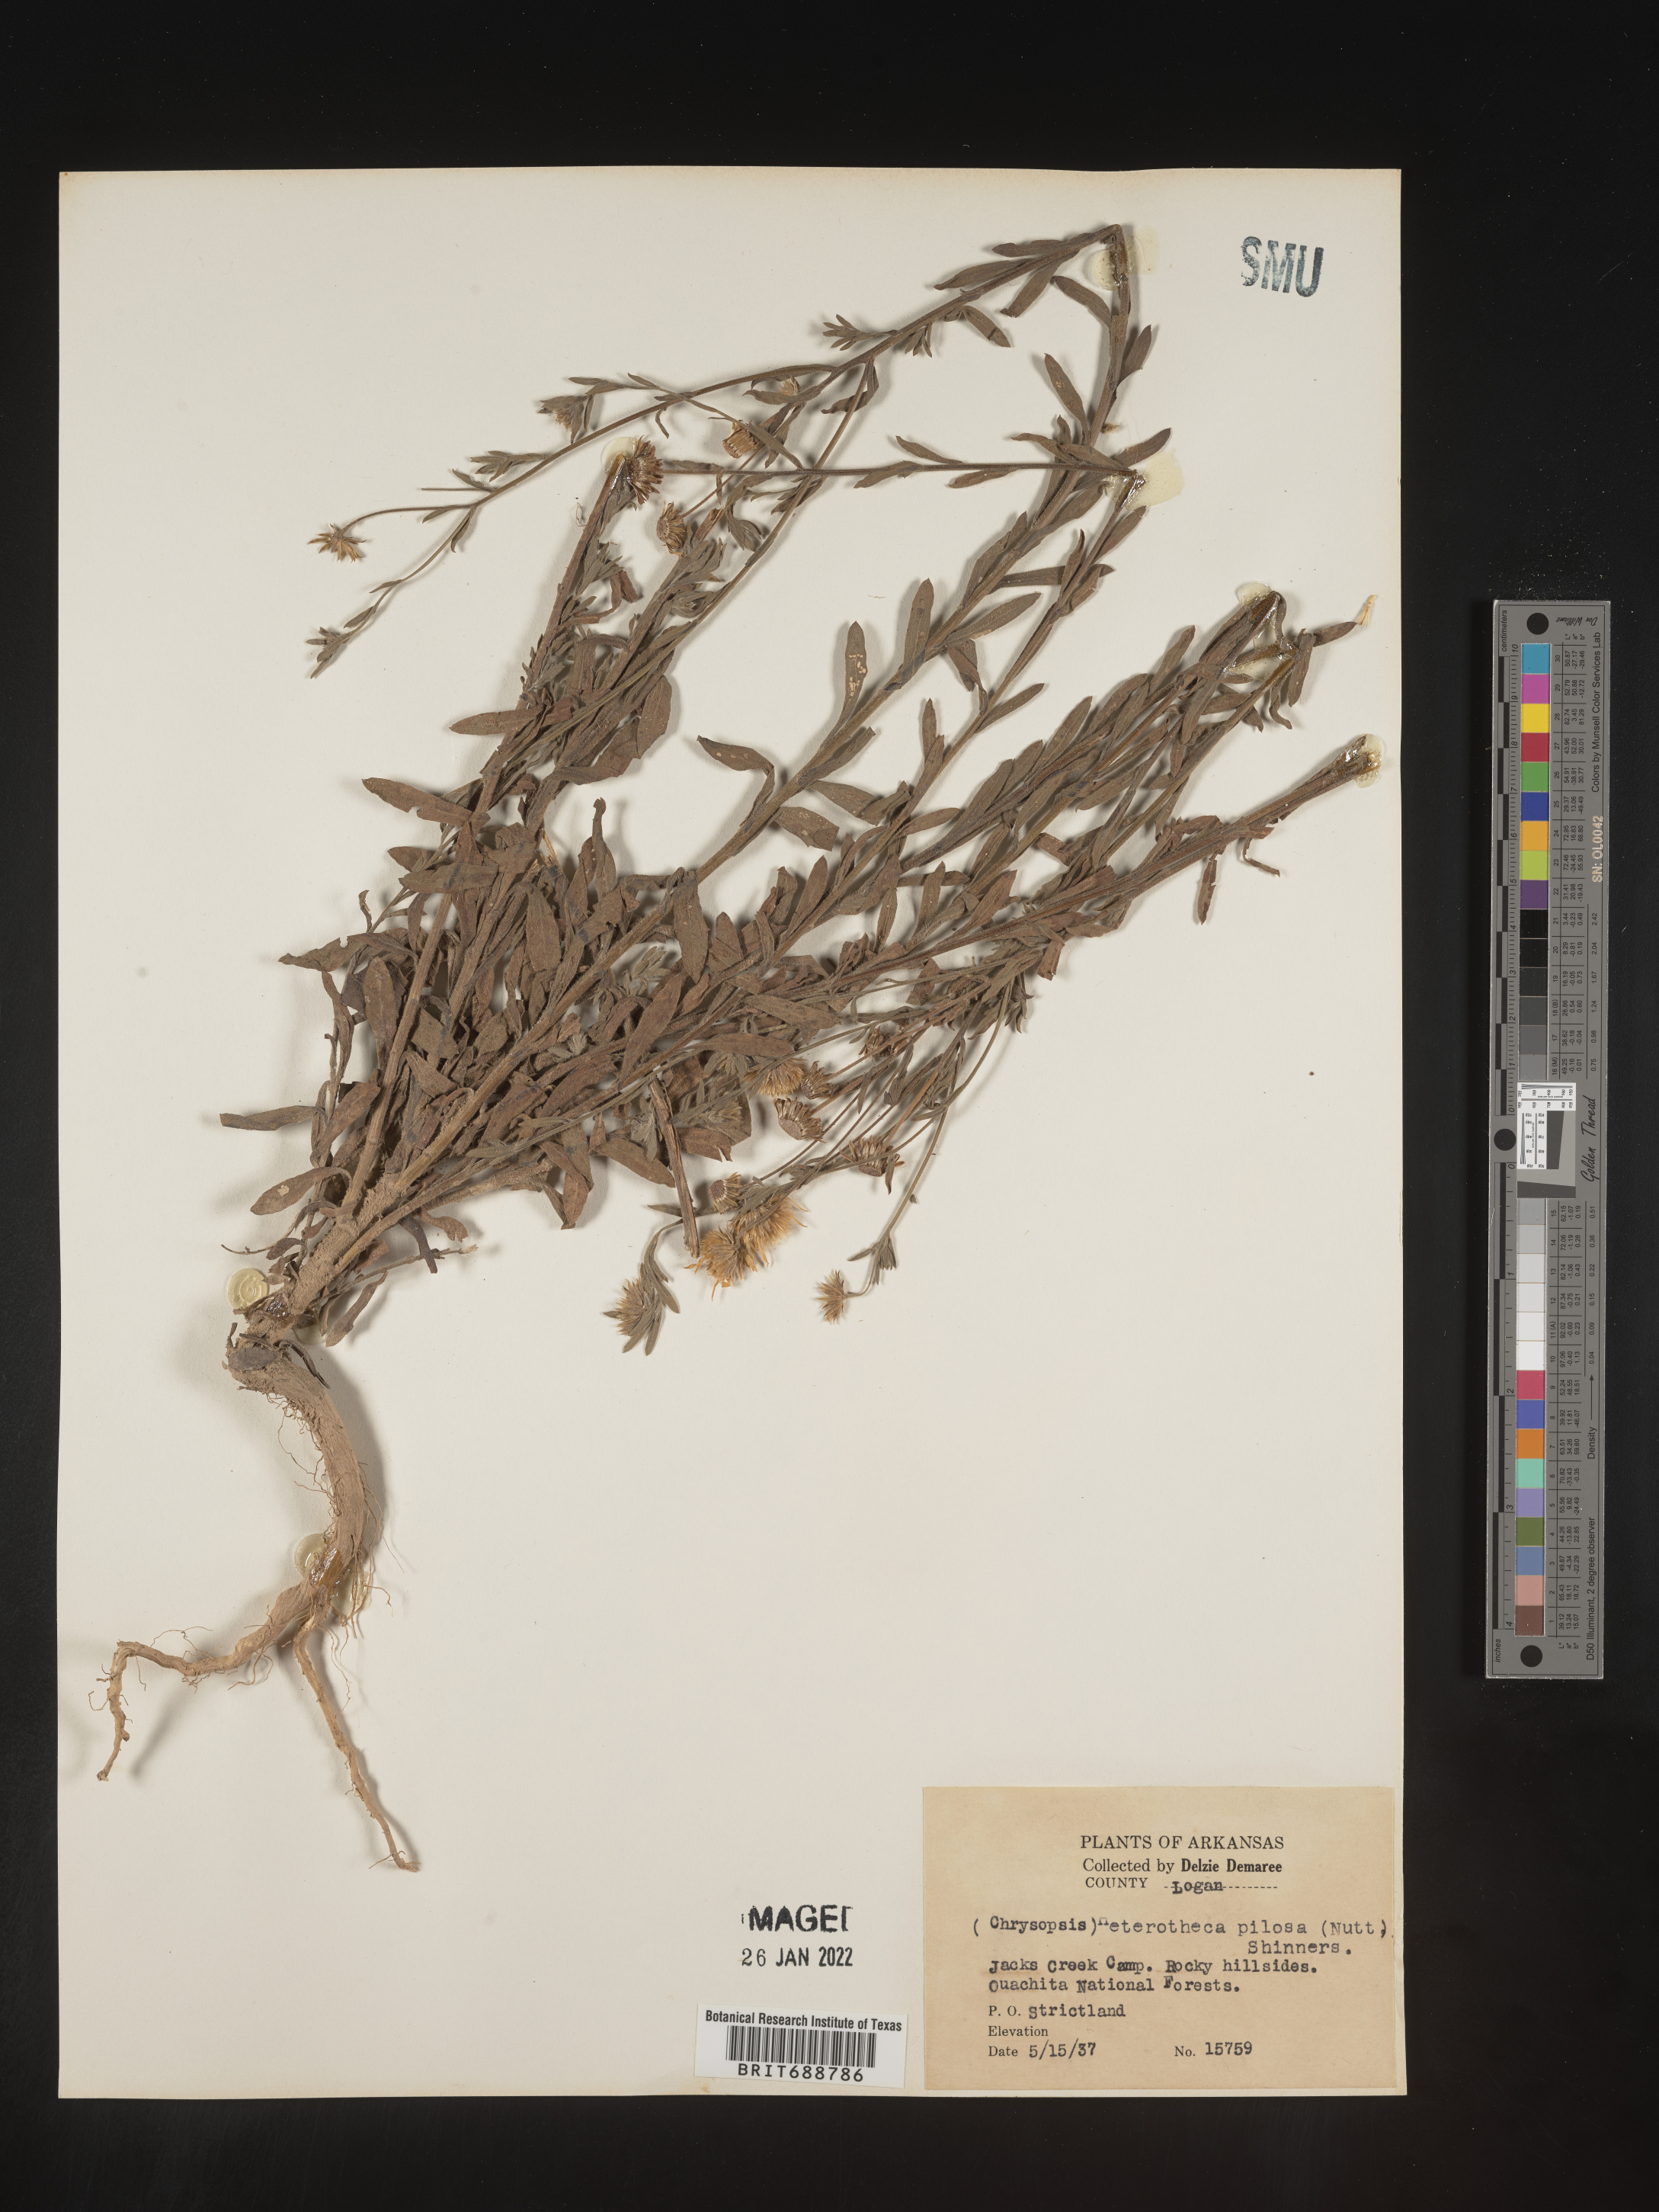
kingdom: Plantae
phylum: Tracheophyta
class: Magnoliopsida
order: Asterales
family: Asteraceae
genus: Bradburia
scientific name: Bradburia pilosa
